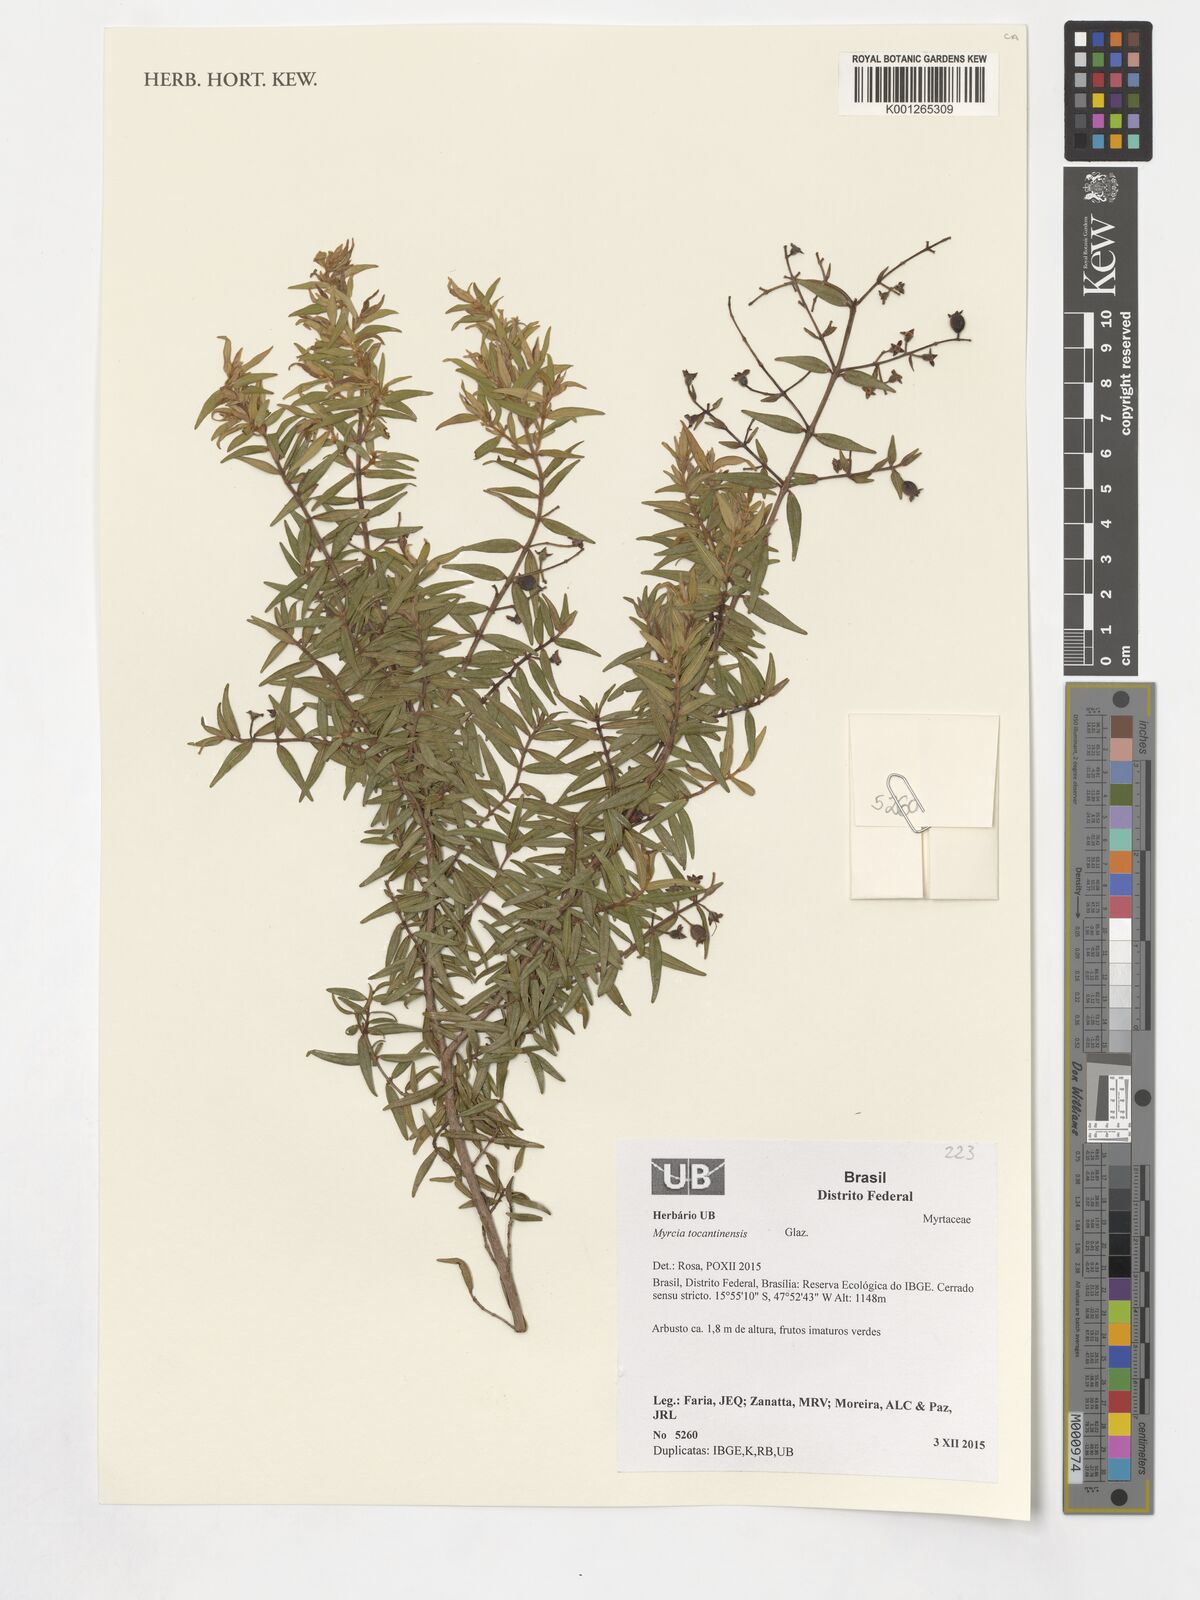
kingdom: Plantae
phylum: Tracheophyta
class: Magnoliopsida
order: Myrtales
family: Myrtaceae
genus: Myrcia
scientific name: Myrcia
